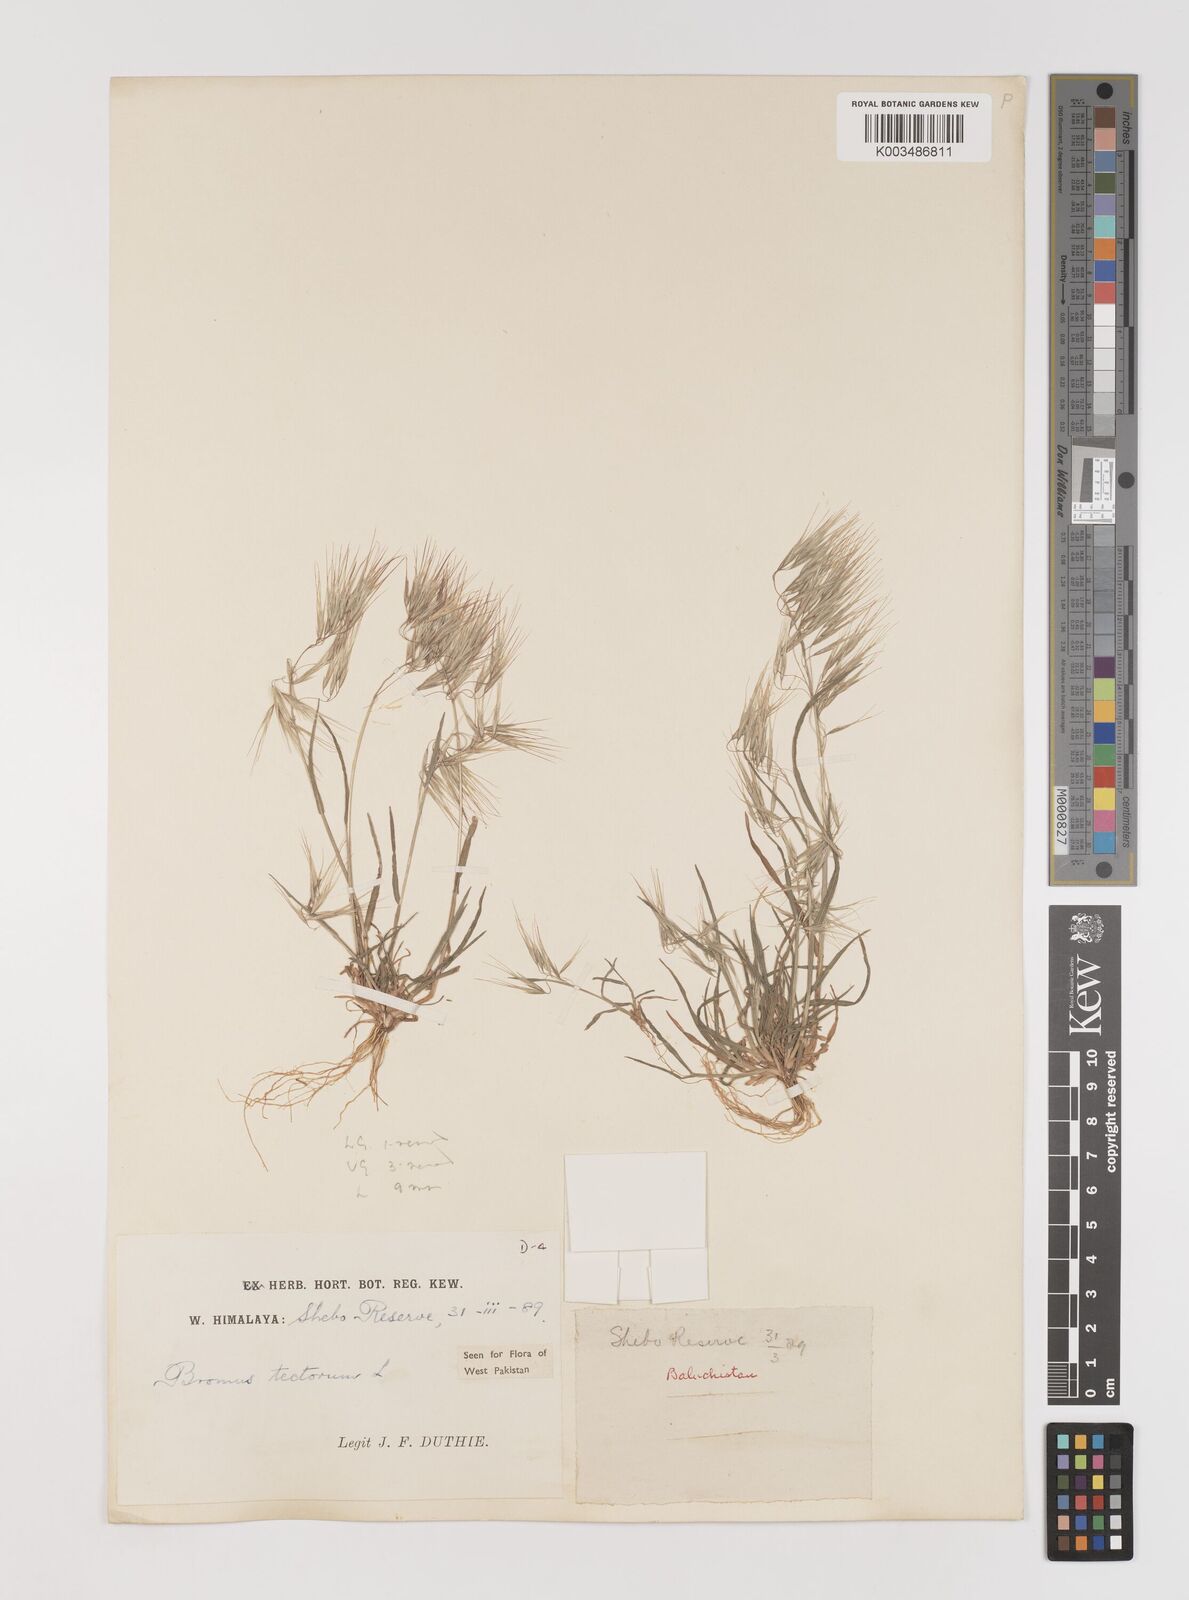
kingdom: Plantae
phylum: Tracheophyta
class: Liliopsida
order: Poales
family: Poaceae
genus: Bromus
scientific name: Bromus tectorum
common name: Cheatgrass
